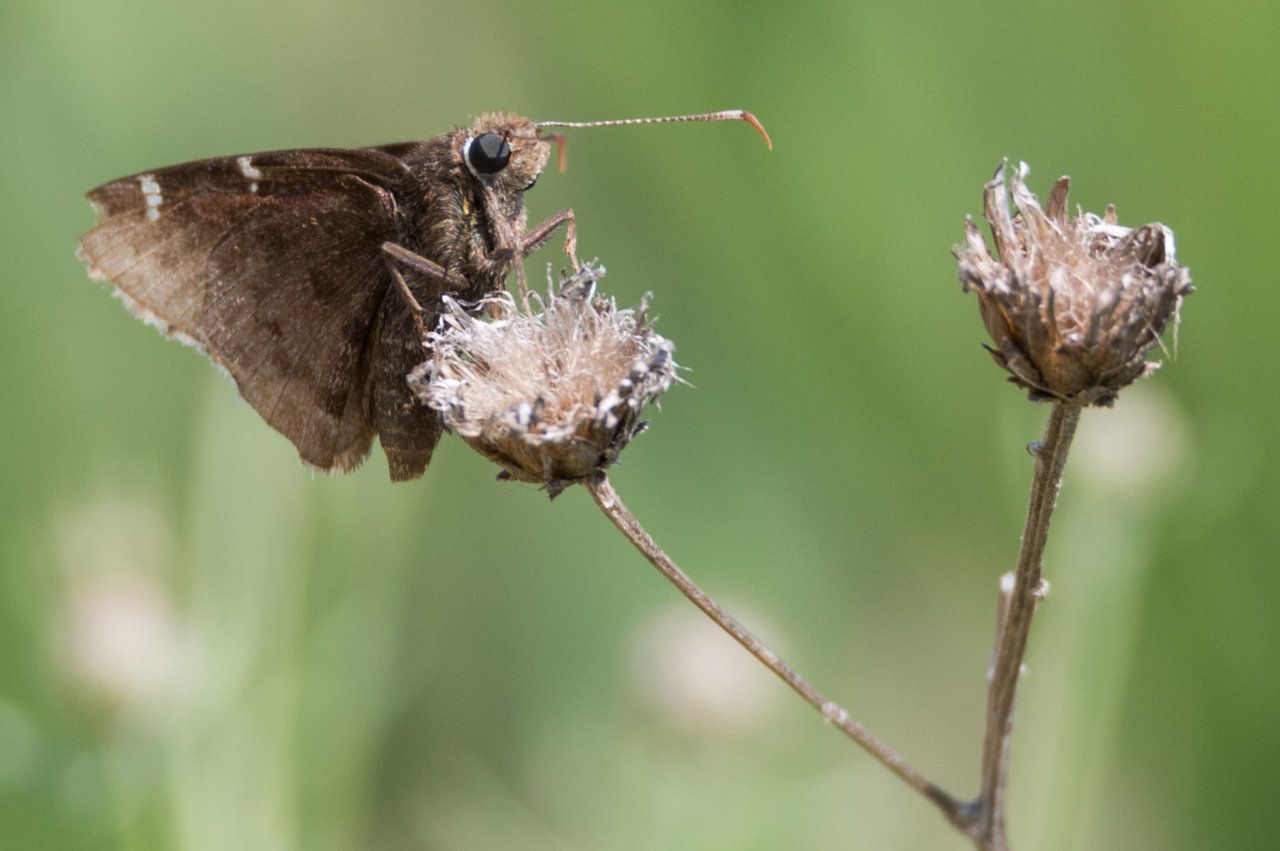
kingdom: Animalia
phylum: Arthropoda
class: Insecta
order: Lepidoptera
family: Hesperiidae
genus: Autochton
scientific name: Autochton
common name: Southern Cloudywing
